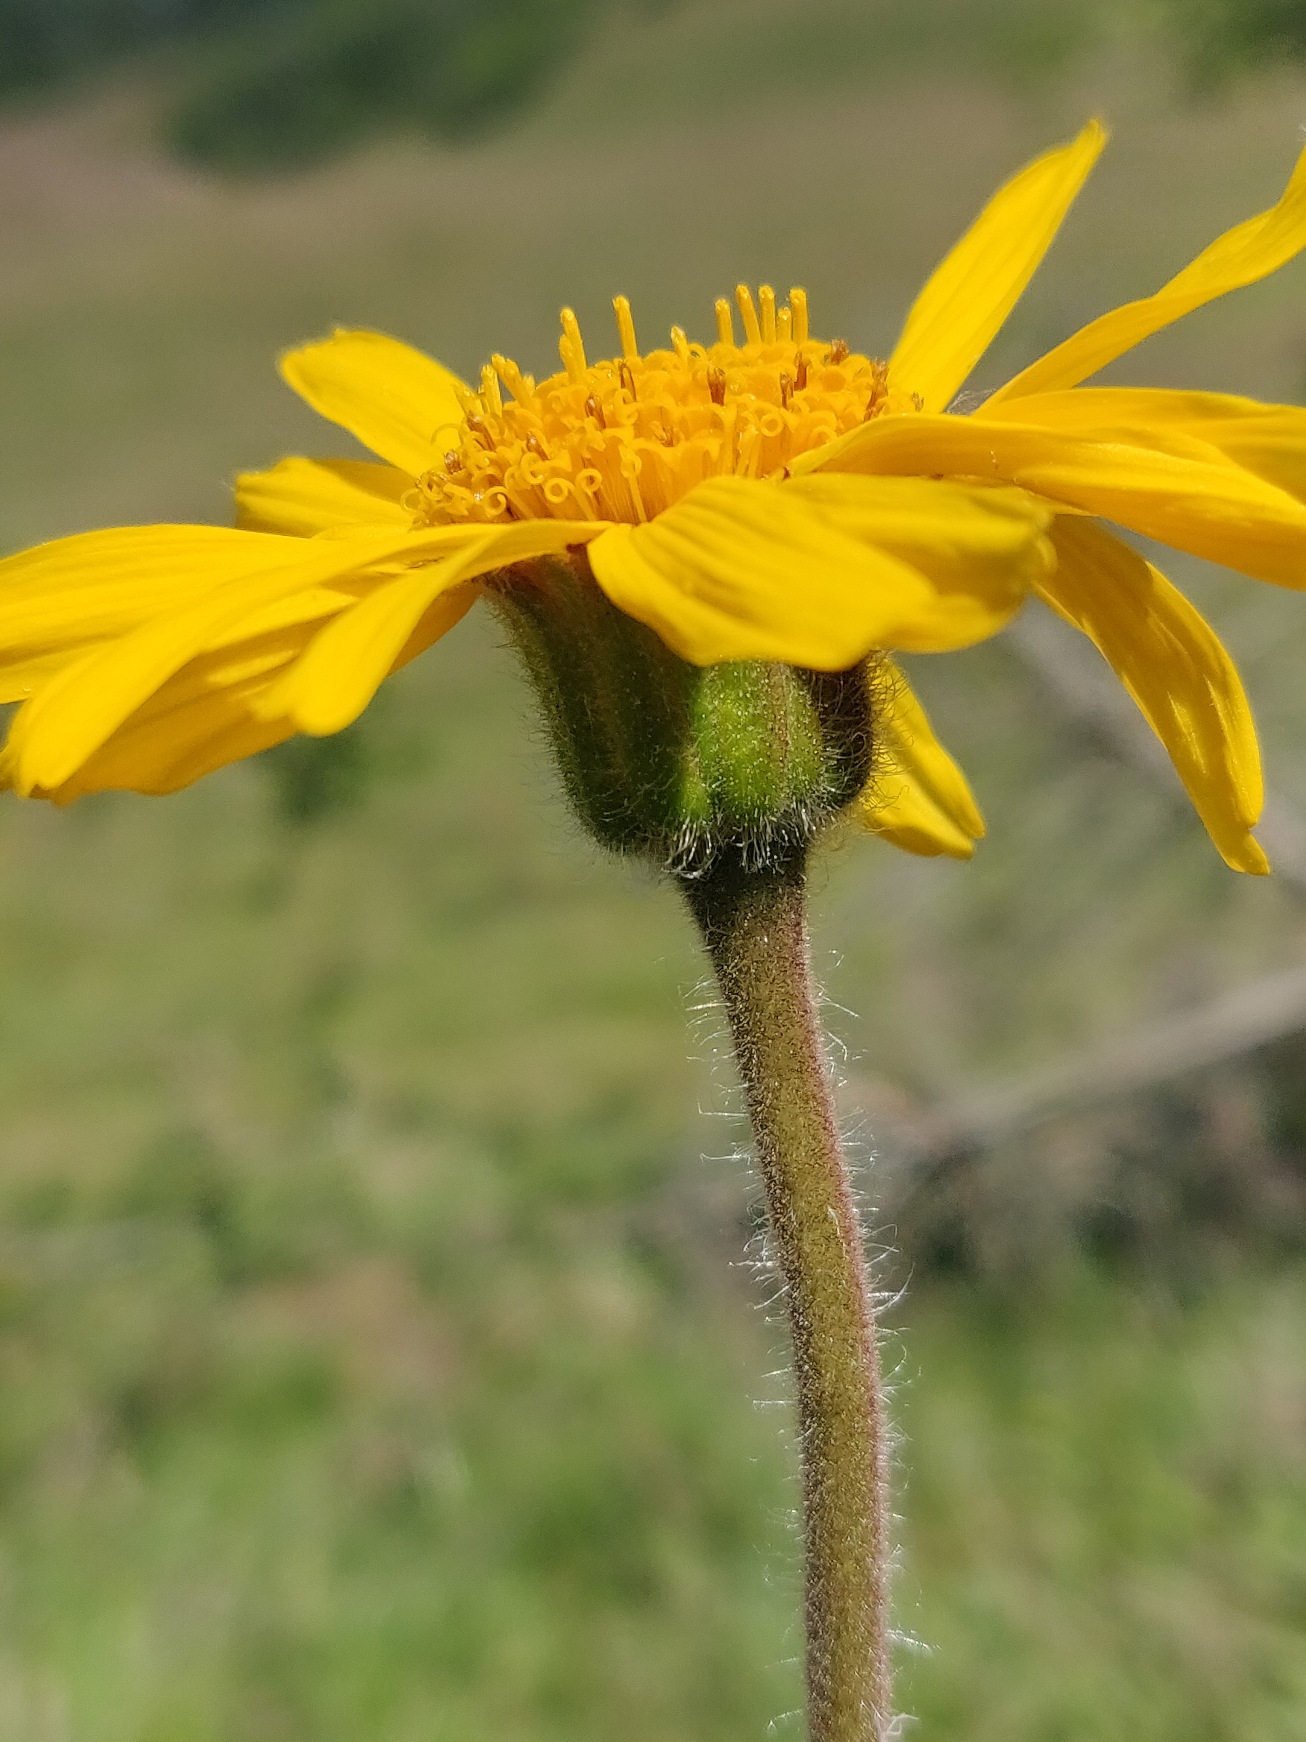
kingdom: Plantae
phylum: Tracheophyta
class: Magnoliopsida
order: Asterales
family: Asteraceae
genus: Arnica
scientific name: Arnica montana
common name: Guldblomme
